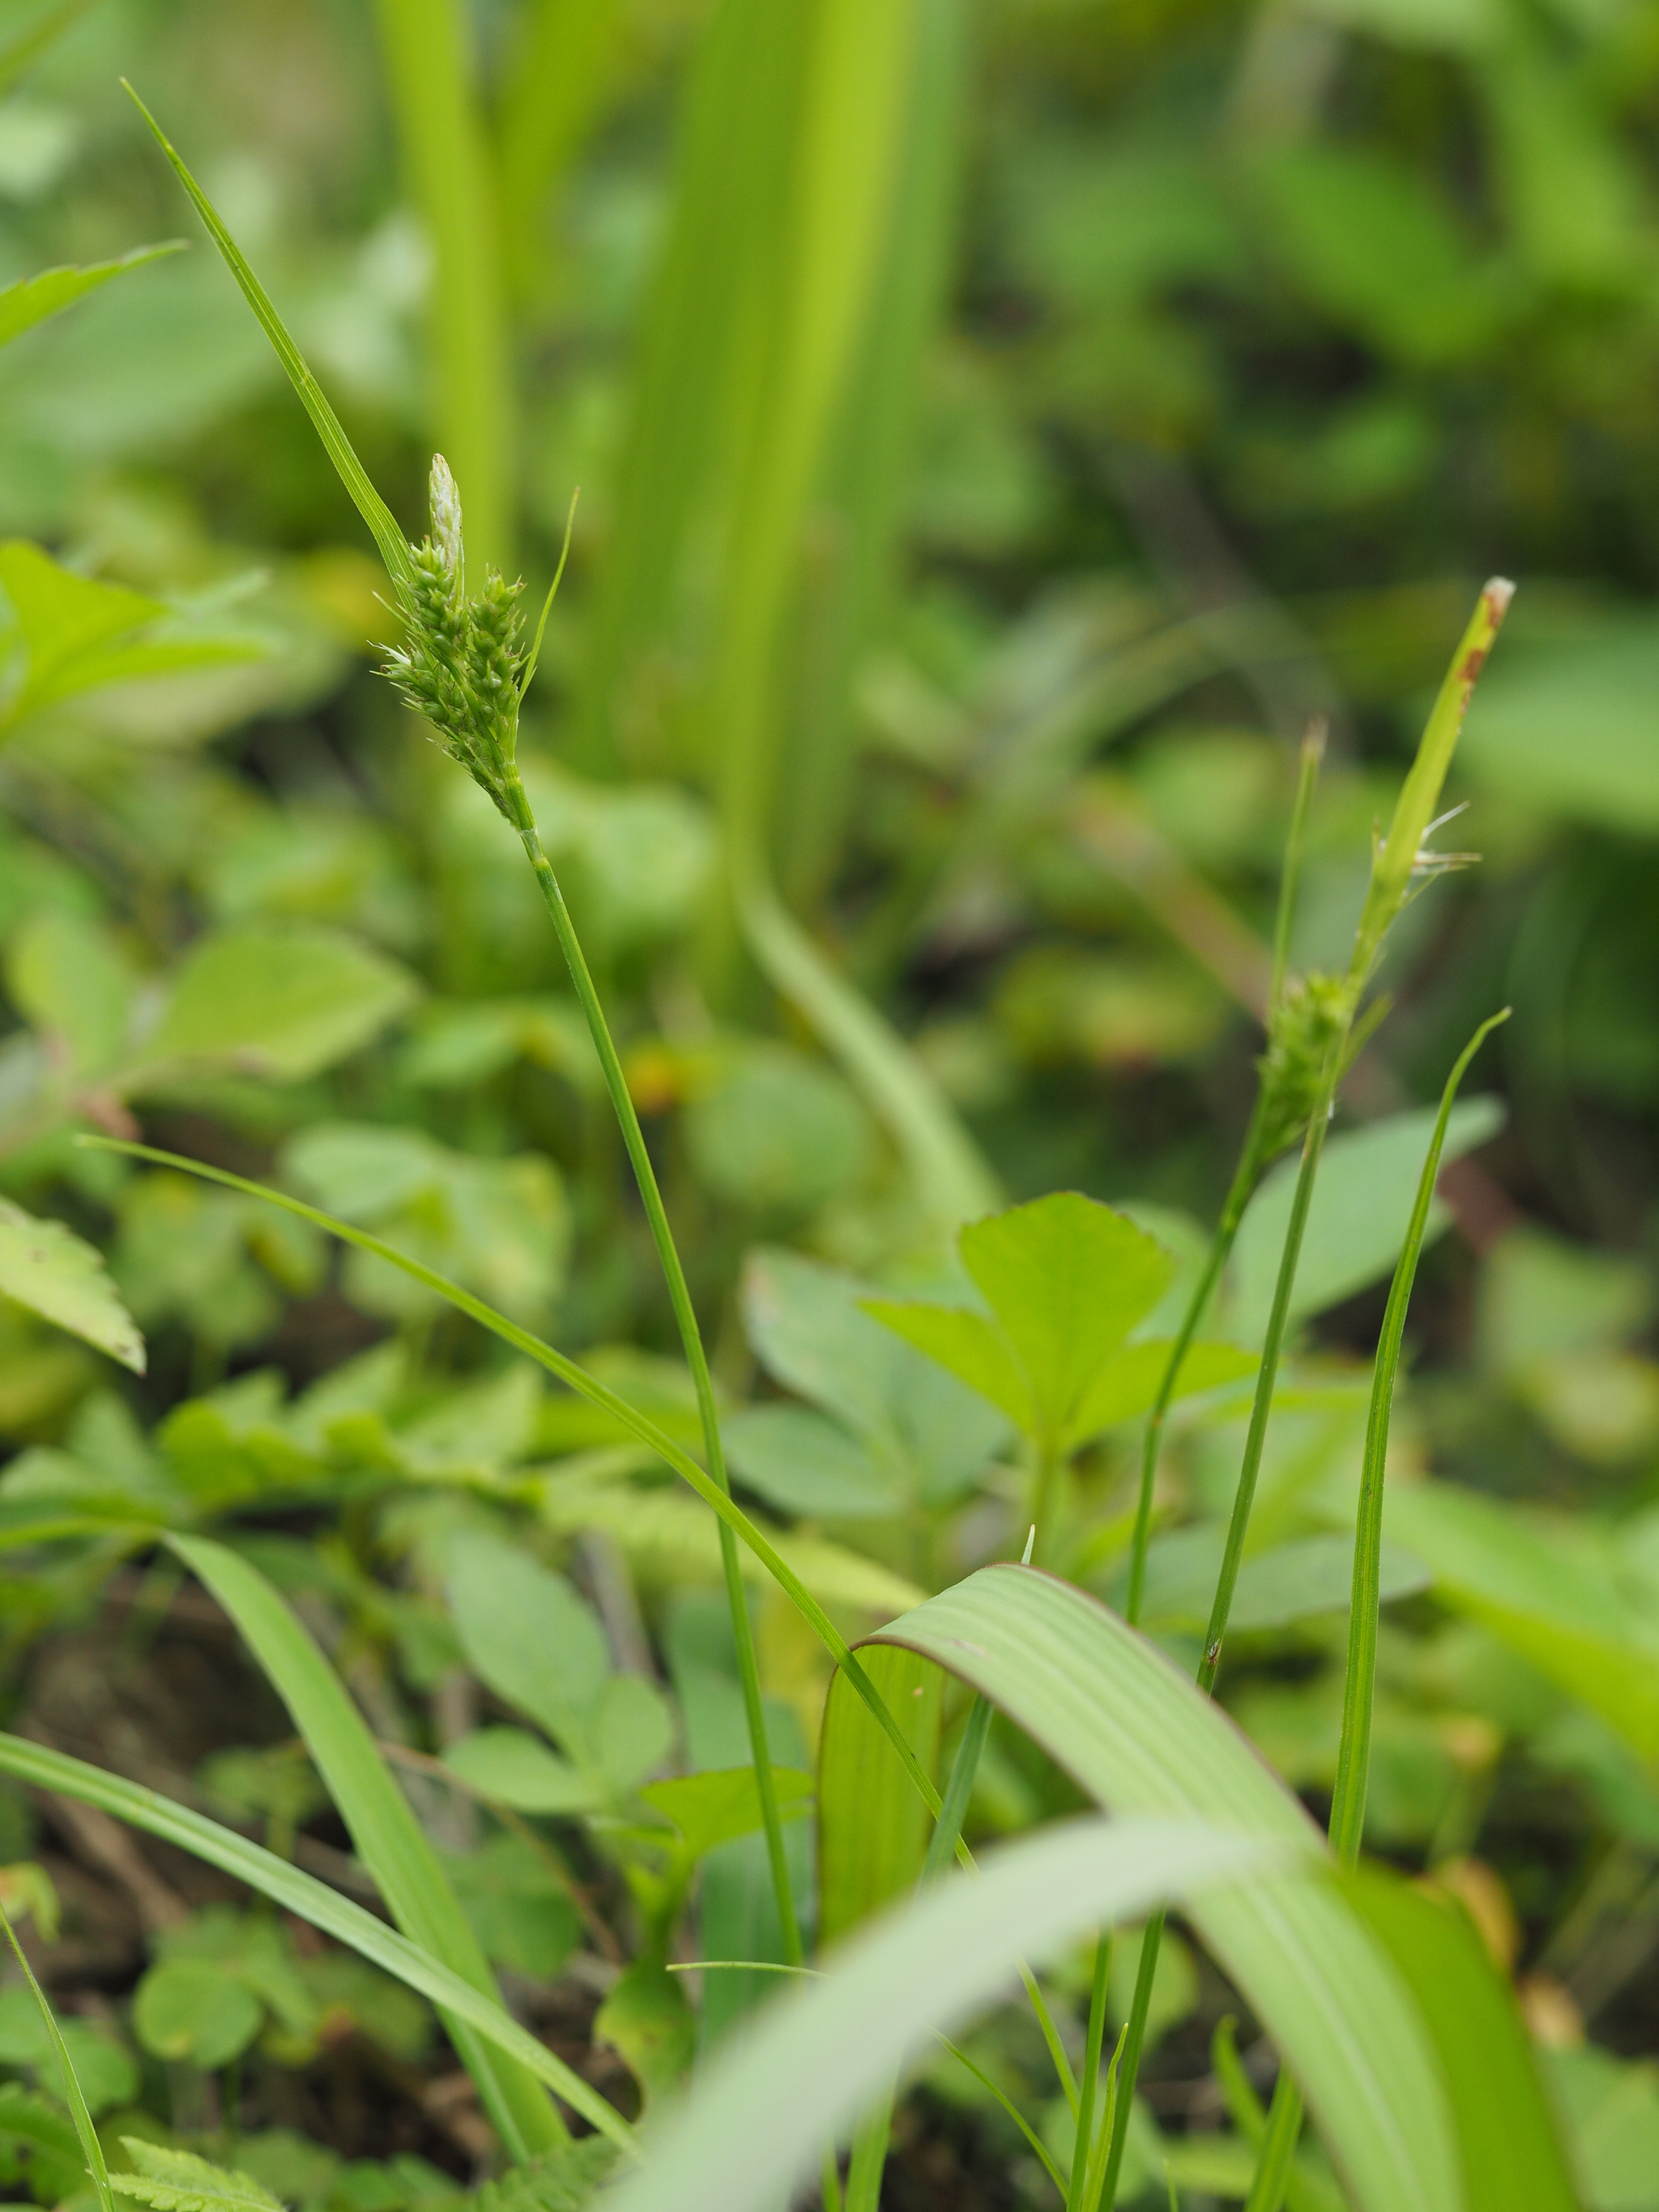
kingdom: Plantae
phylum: Tracheophyta
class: Liliopsida
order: Poales
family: Cyperaceae
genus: Carex
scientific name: Carex breviculmis
